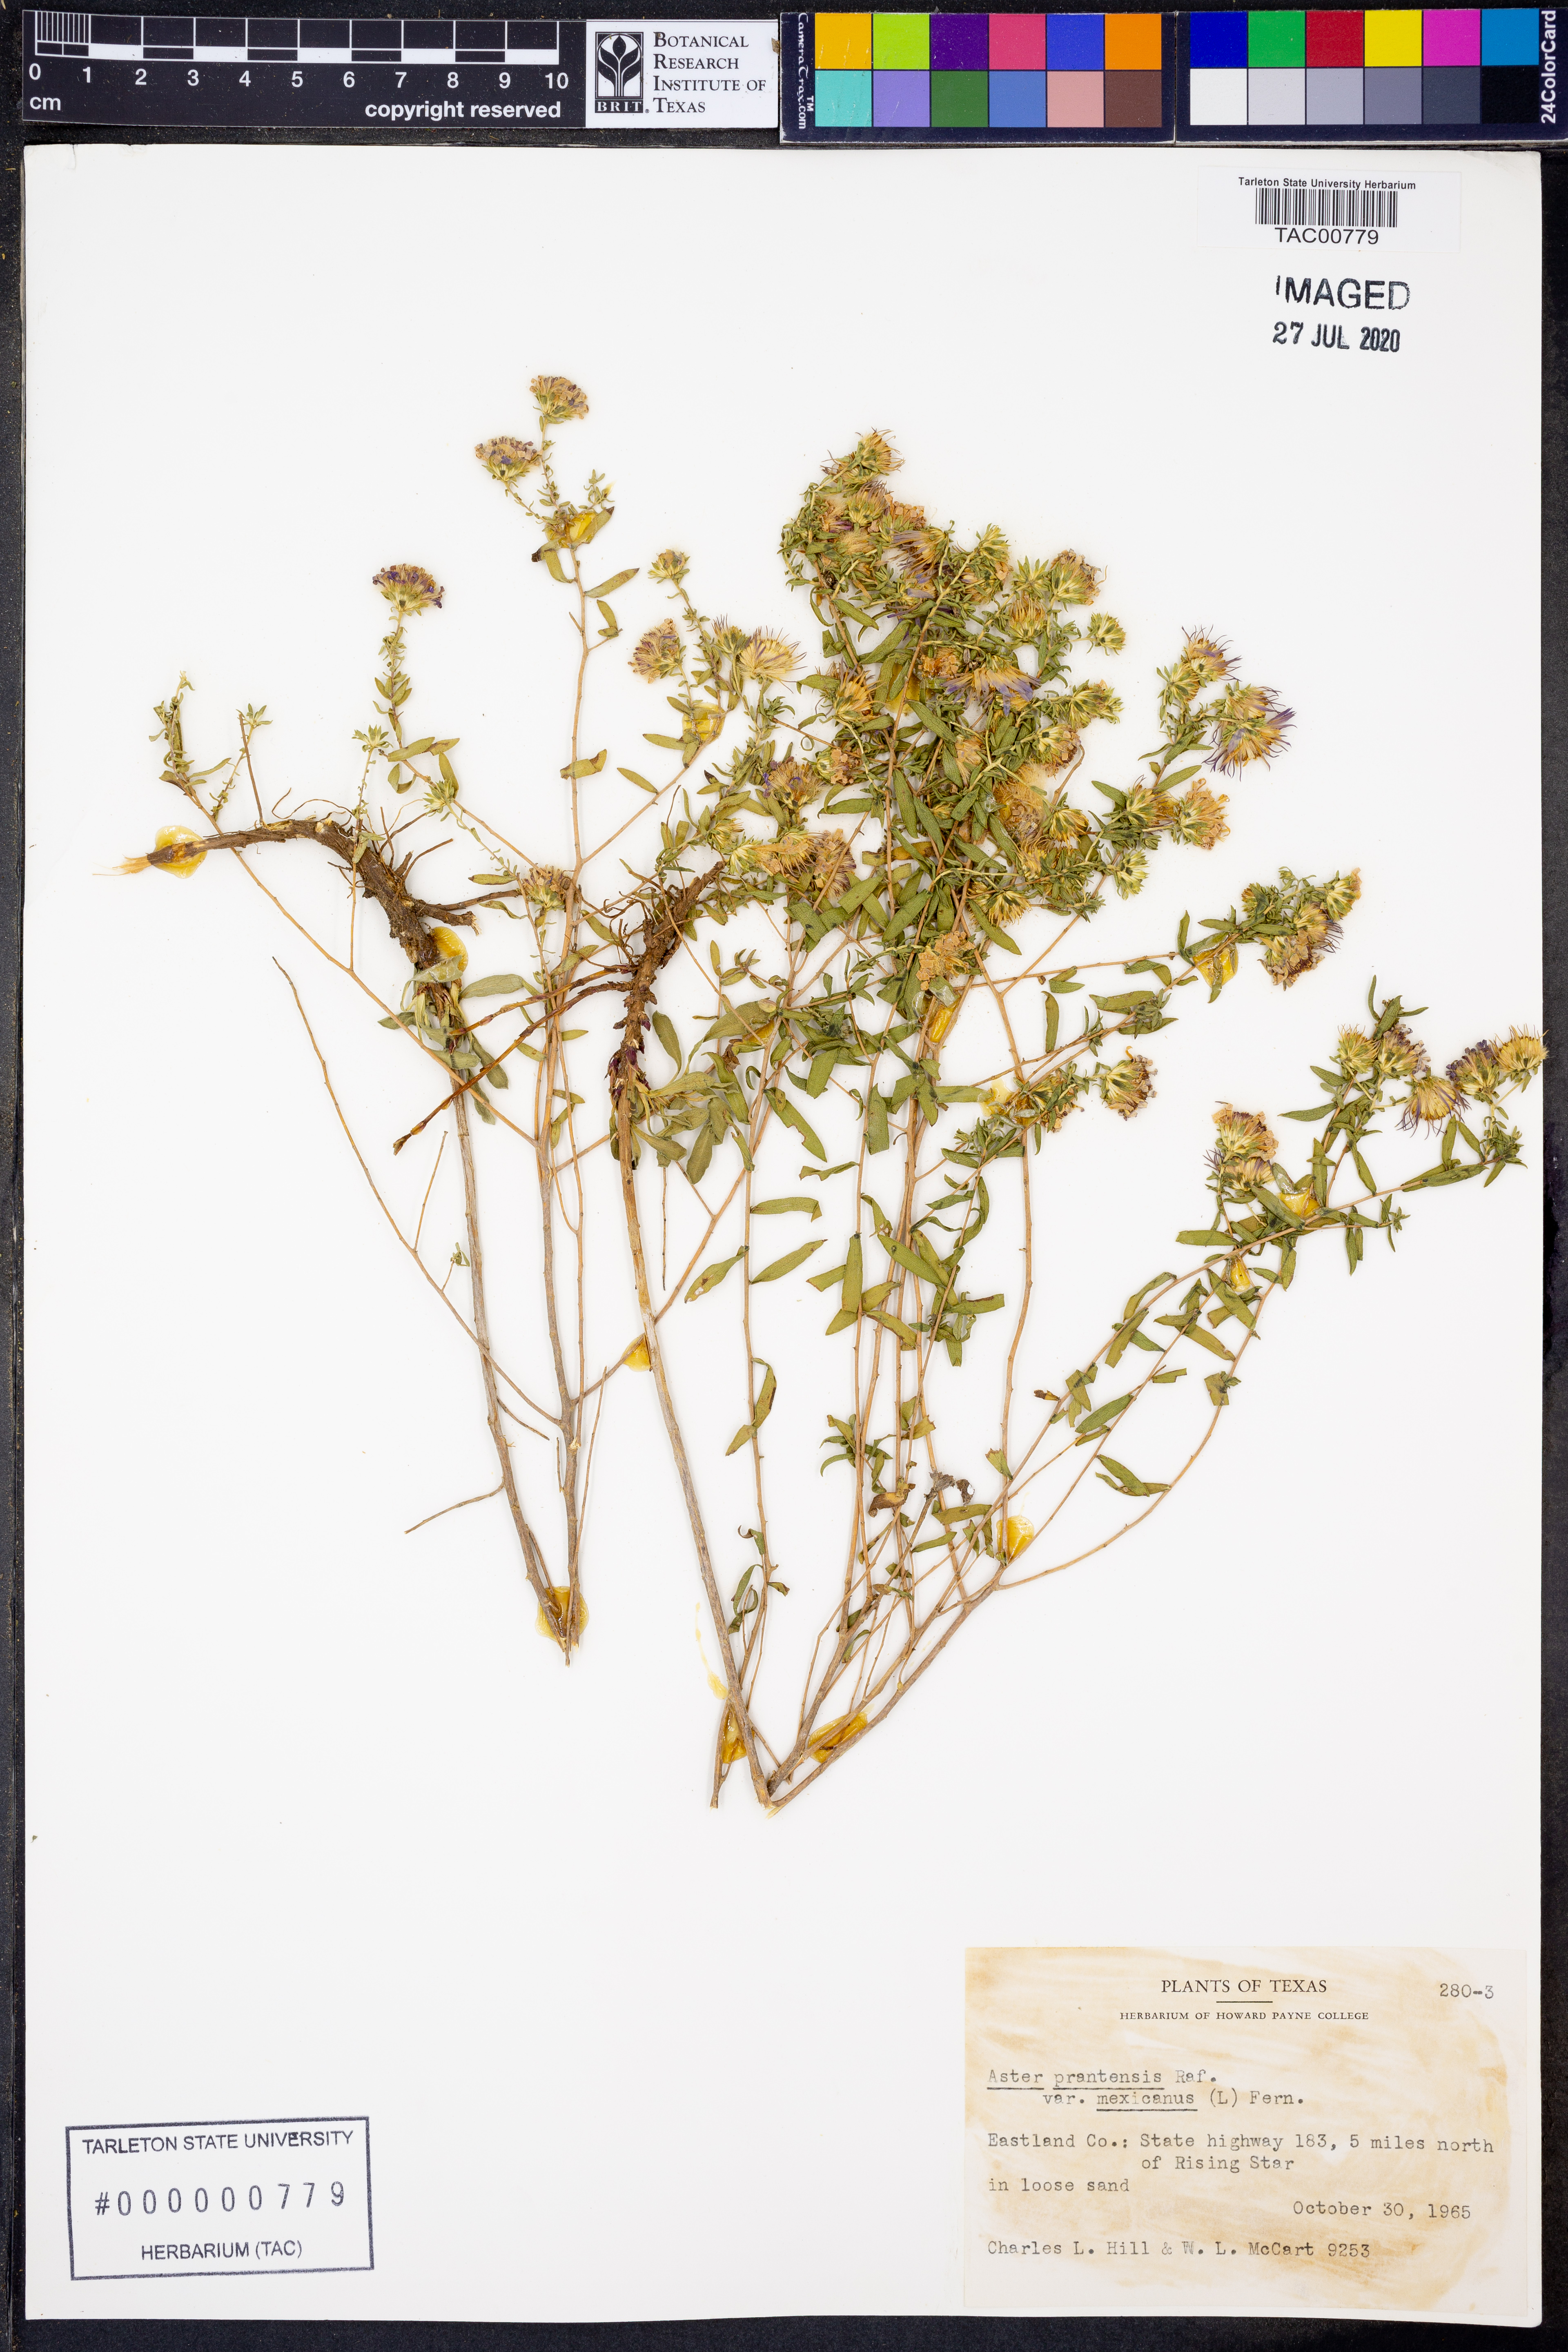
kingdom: Plantae
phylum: Tracheophyta
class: Magnoliopsida
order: Asterales
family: Asteraceae
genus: Symphyotrichum
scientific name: Symphyotrichum pratense
